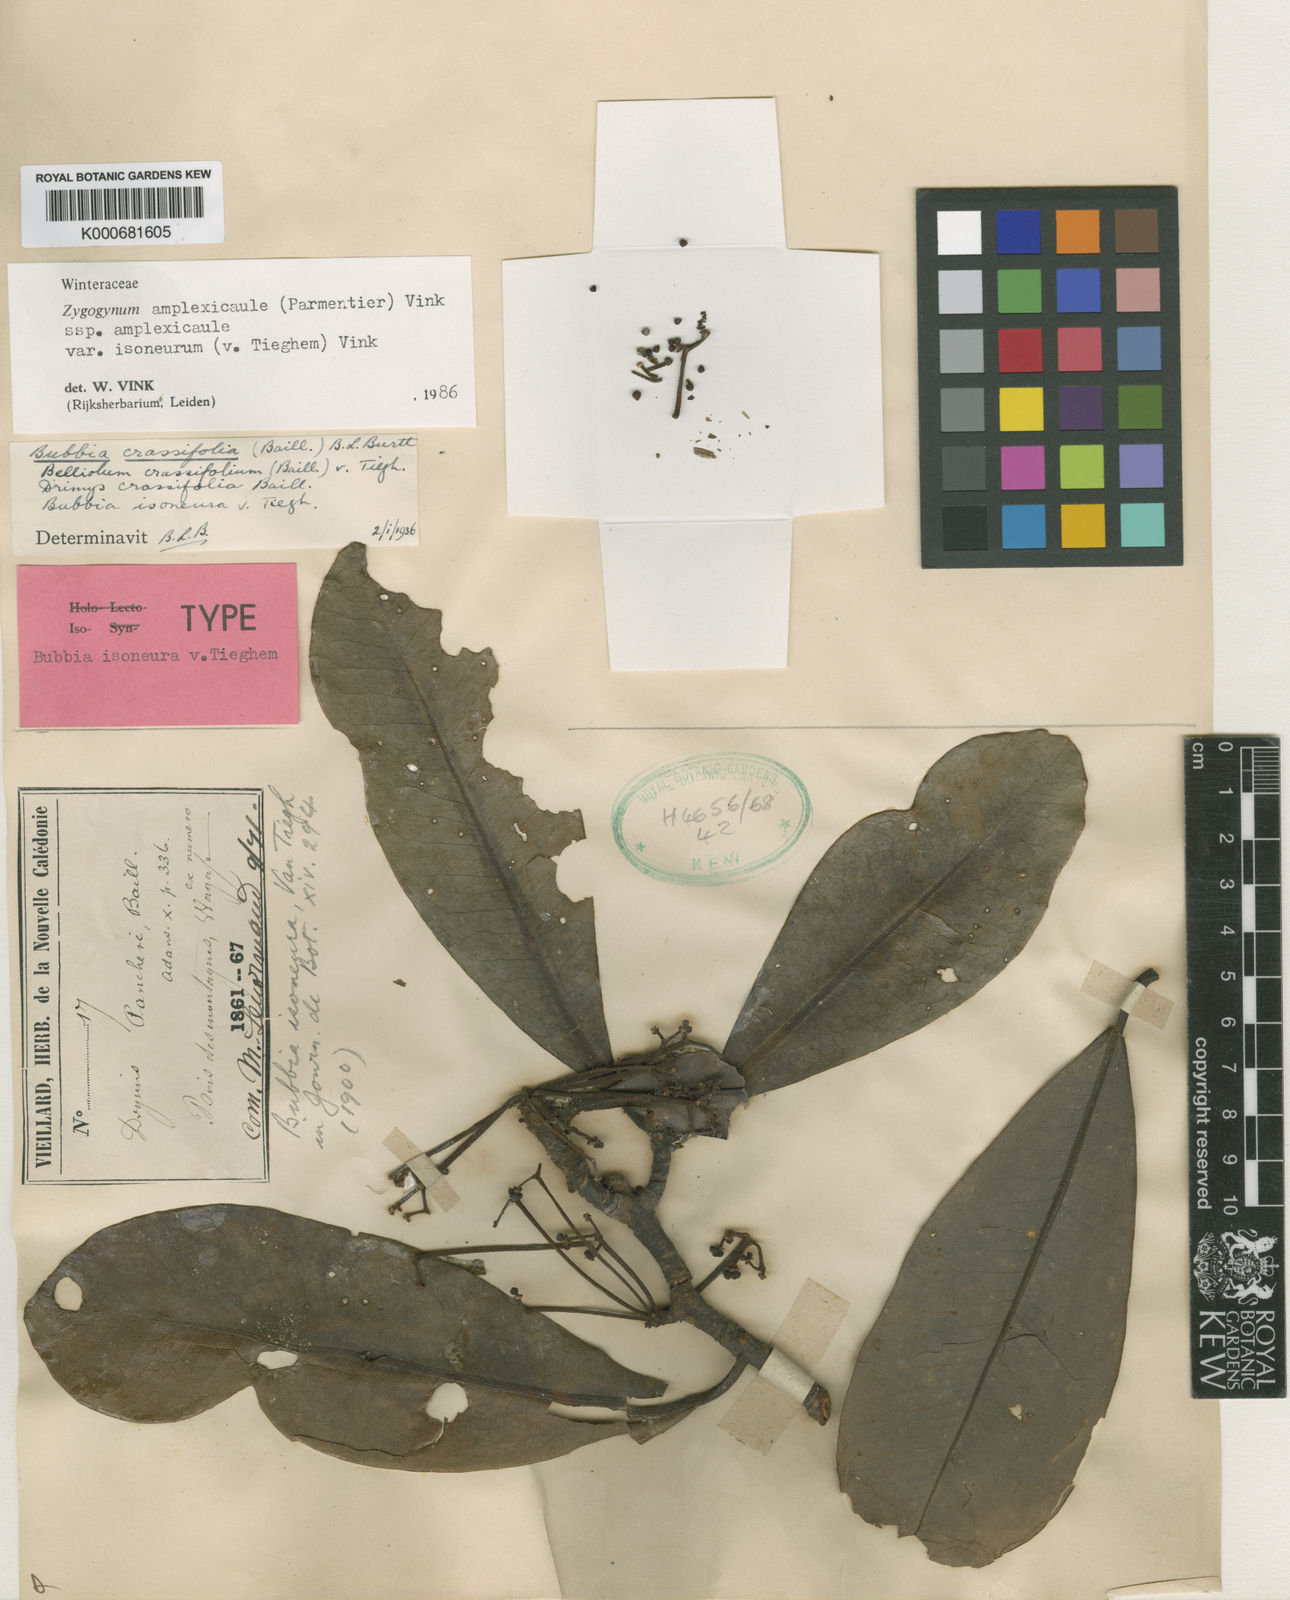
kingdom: Plantae
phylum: Tracheophyta
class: Magnoliopsida
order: Canellales
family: Winteraceae
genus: Zygogynum
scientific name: Zygogynum crassifolium
